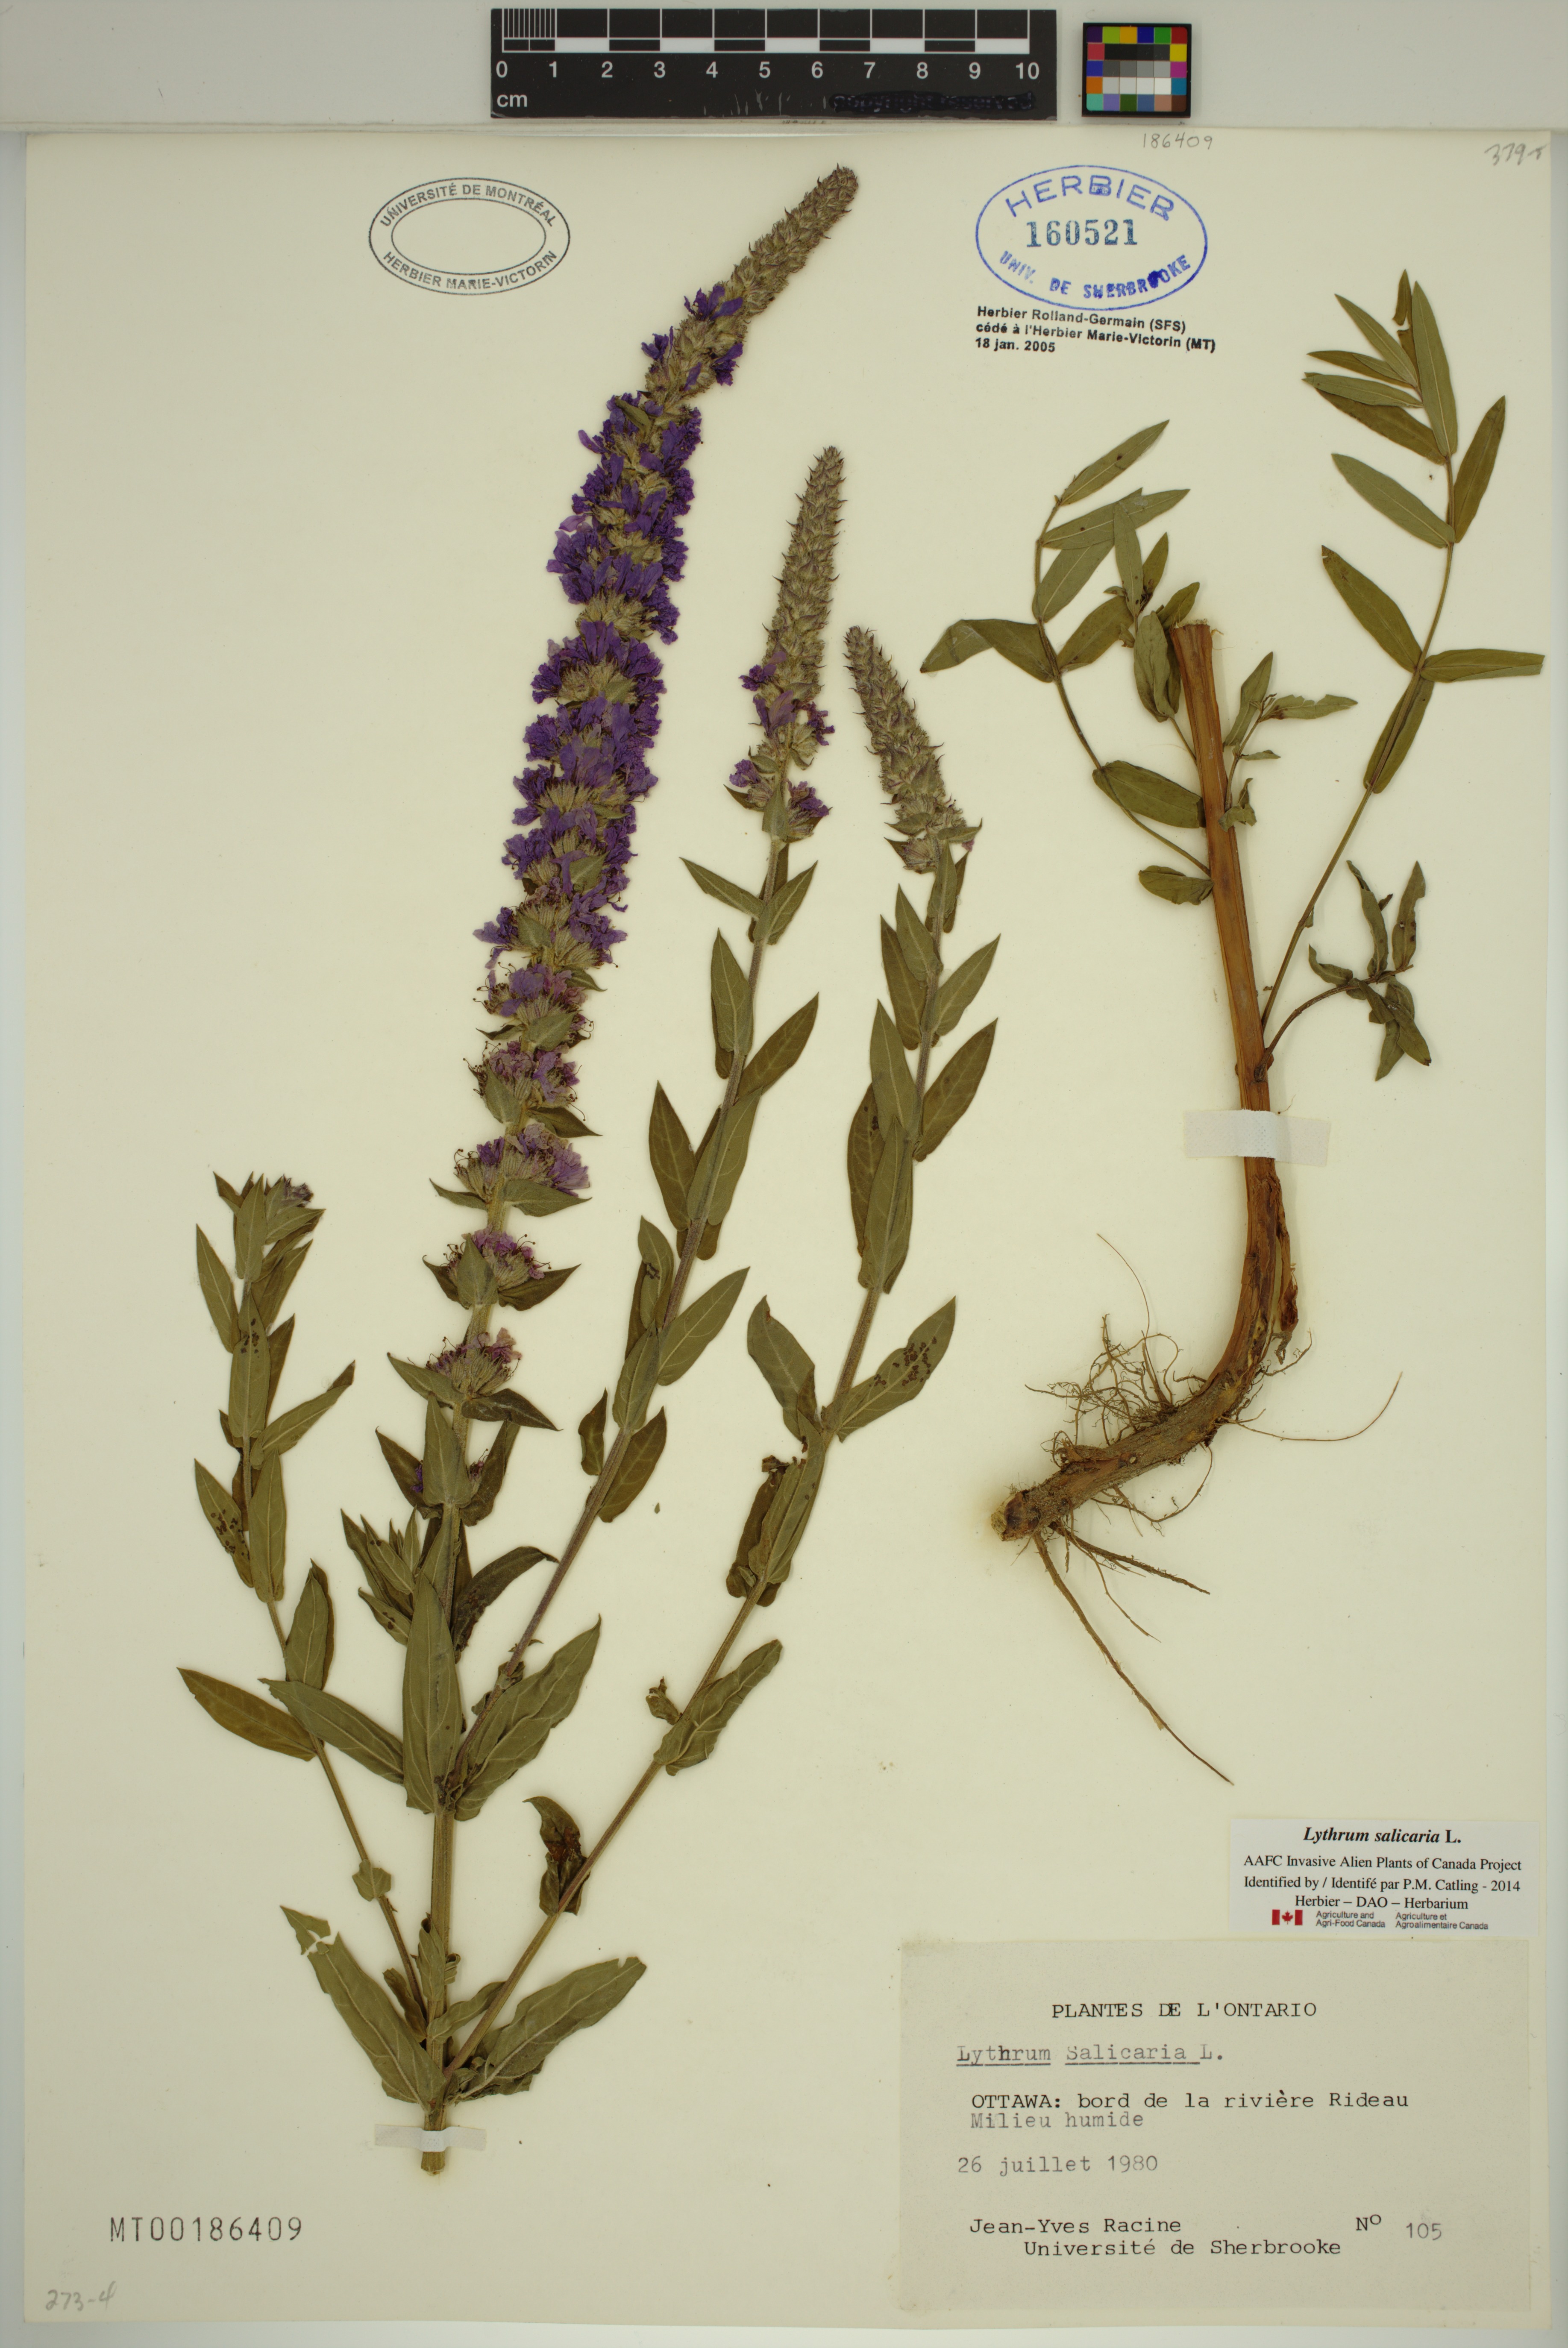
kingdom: Plantae
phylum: Tracheophyta
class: Magnoliopsida
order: Myrtales
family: Lythraceae
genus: Lythrum
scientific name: Lythrum salicaria
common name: Purple loosestrife
